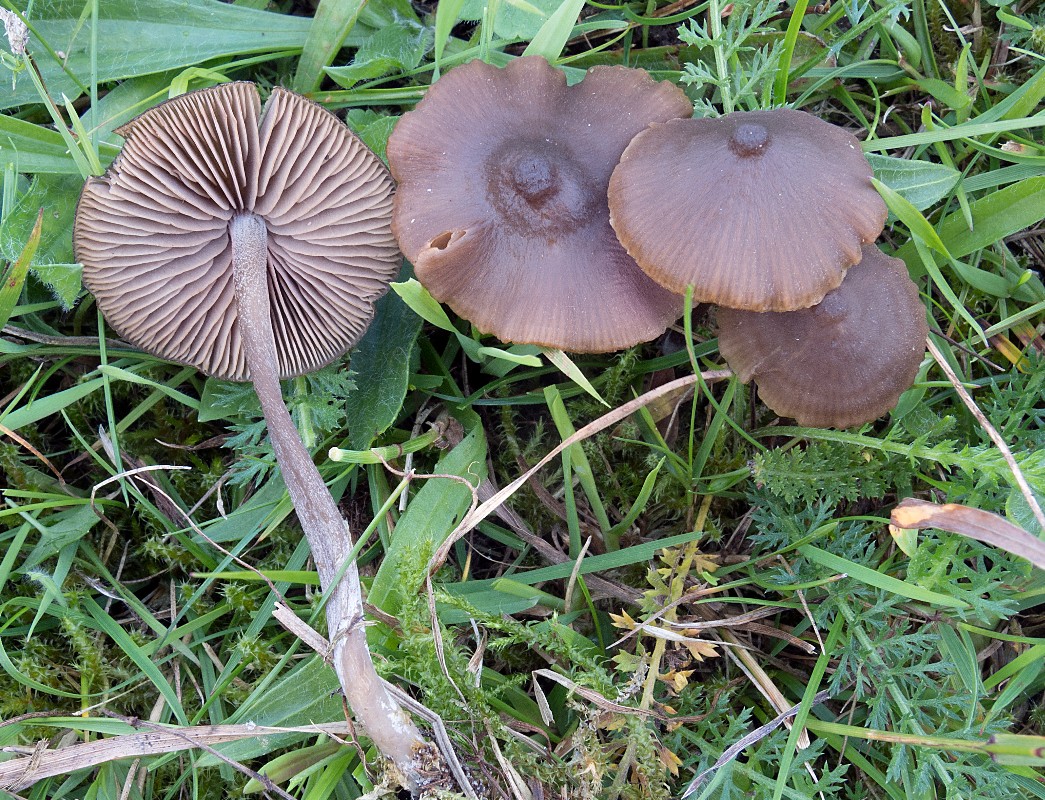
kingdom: Fungi
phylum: Basidiomycota
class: Agaricomycetes
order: Agaricales
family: Entolomataceae
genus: Entoloma
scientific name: Entoloma clandestinum
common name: tykbladet rødblad
